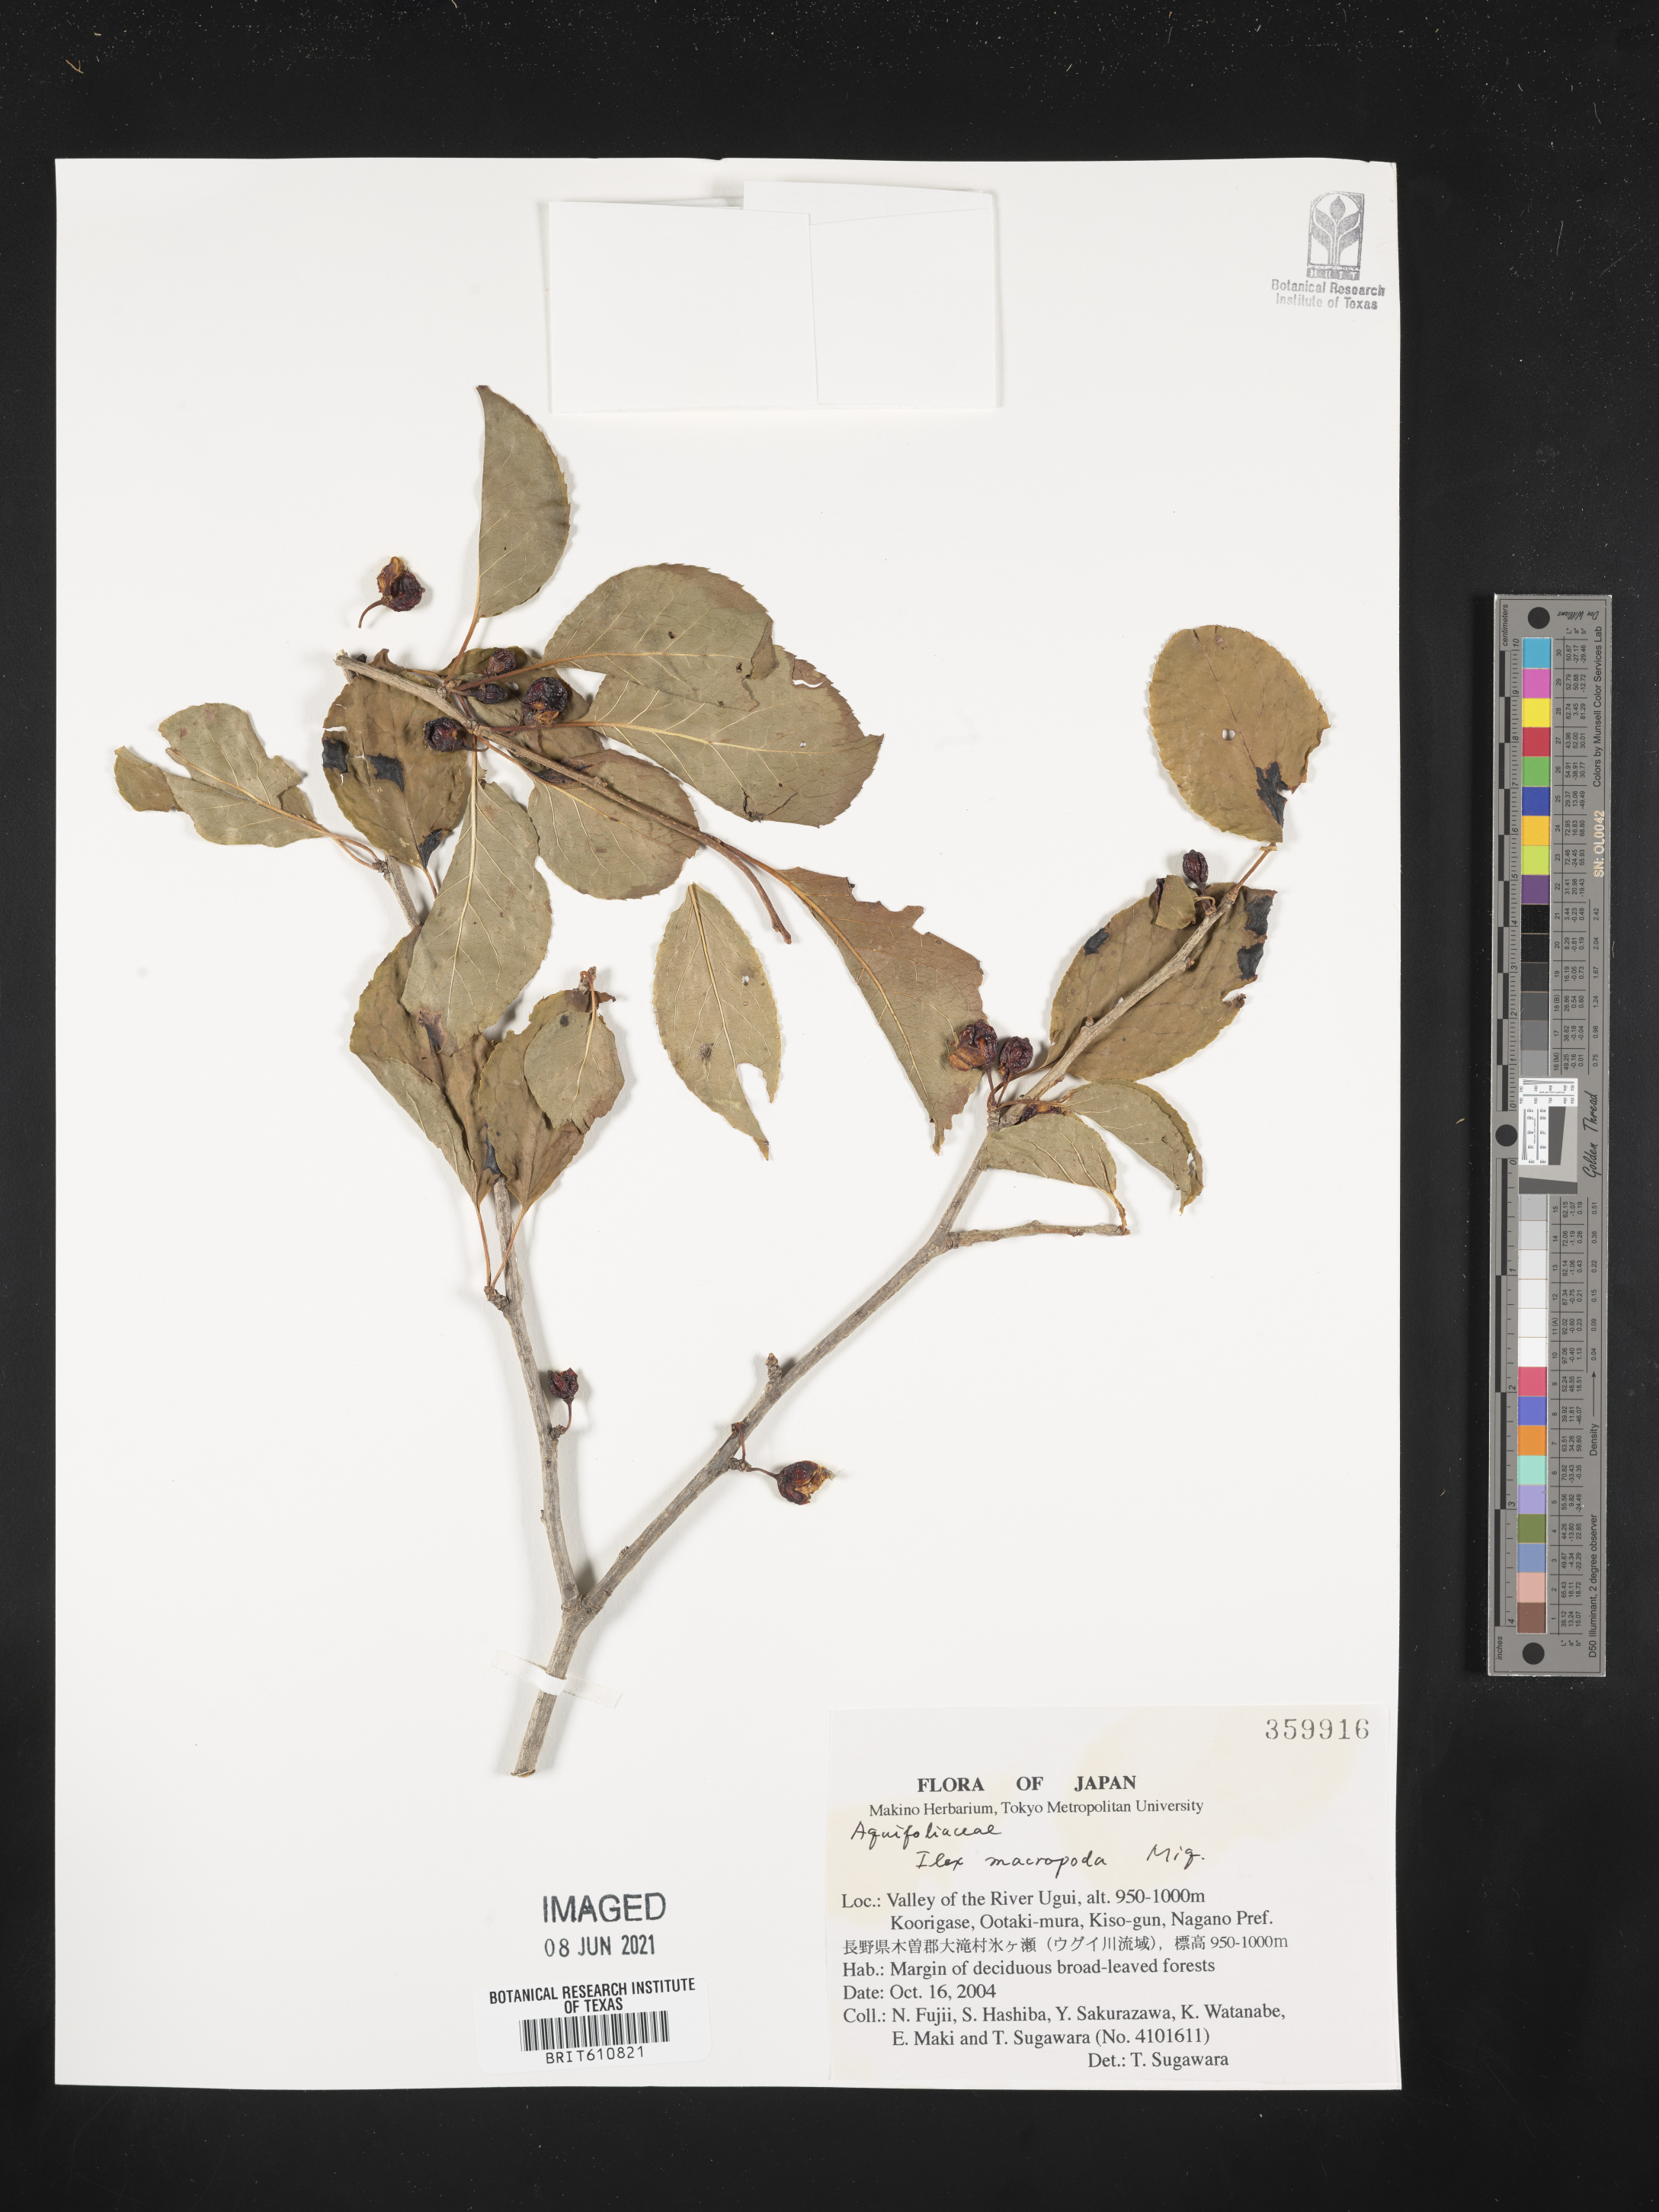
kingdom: Plantae
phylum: Tracheophyta
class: Magnoliopsida
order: Aquifoliales
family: Aquifoliaceae
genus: Ilex
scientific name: Ilex macropoda
